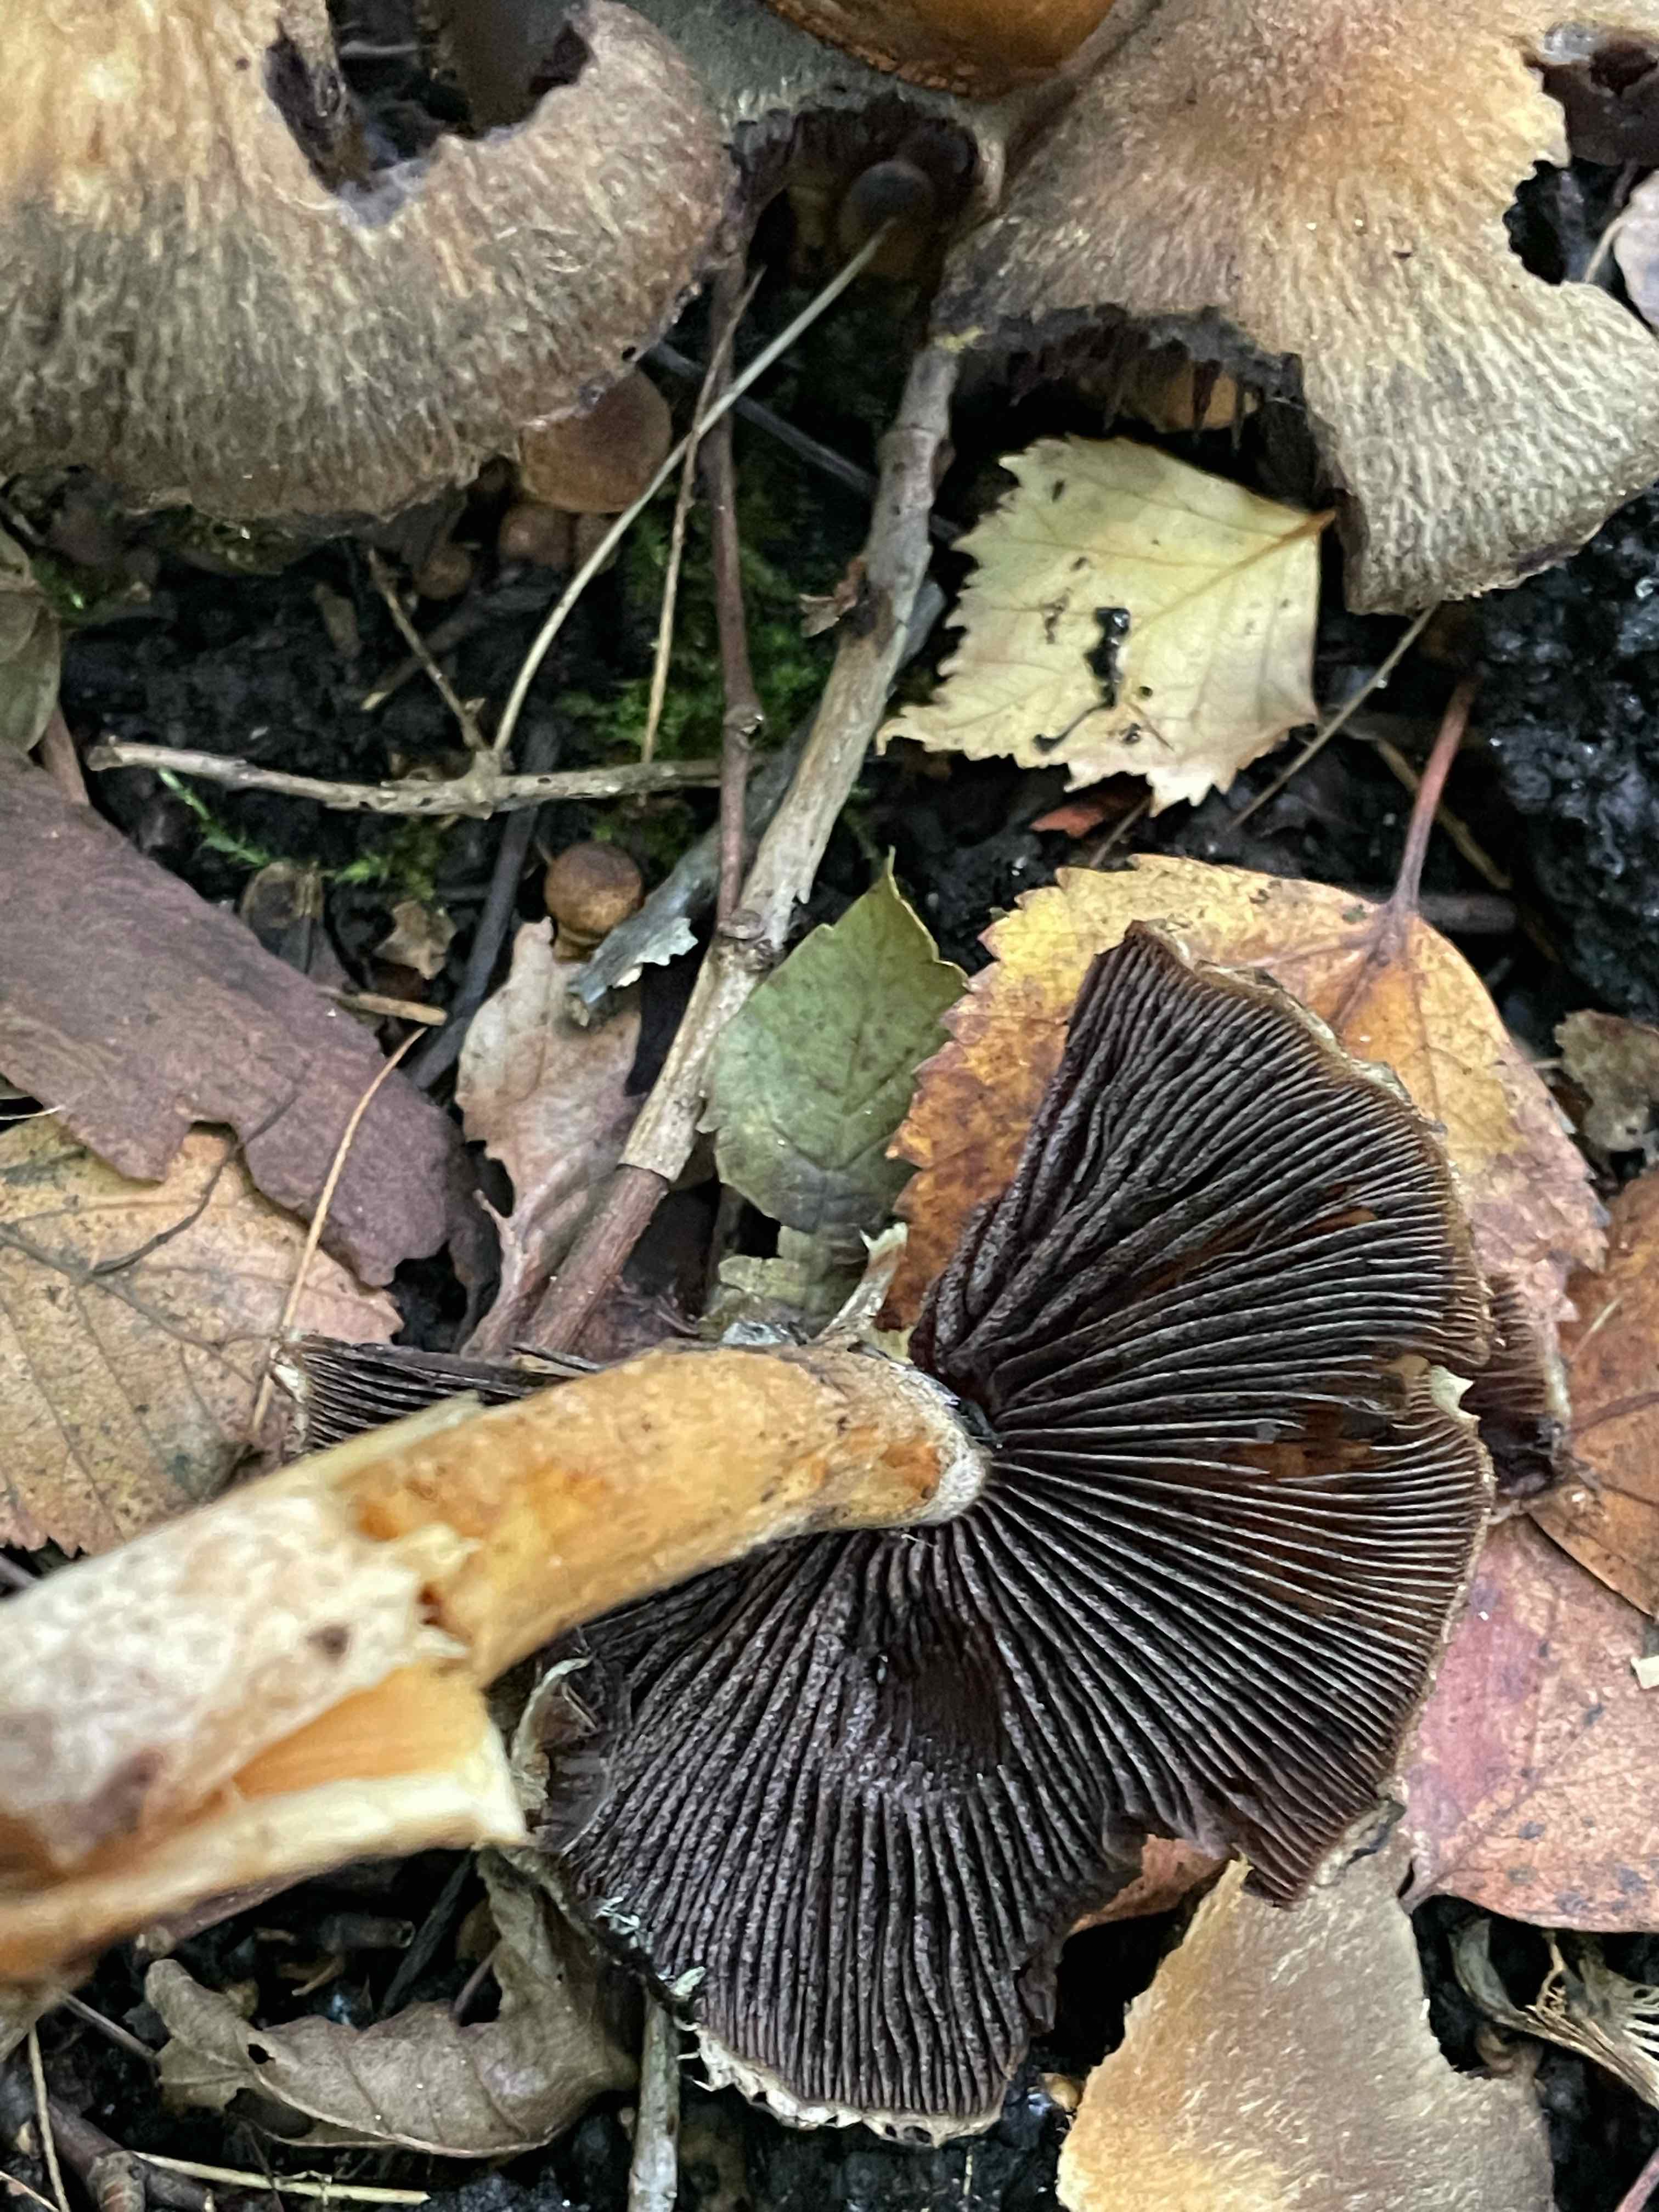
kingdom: Fungi
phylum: Basidiomycota
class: Agaricomycetes
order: Agaricales
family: Psathyrellaceae
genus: Lacrymaria
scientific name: Lacrymaria lacrymabunda
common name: grædende mørkhat
